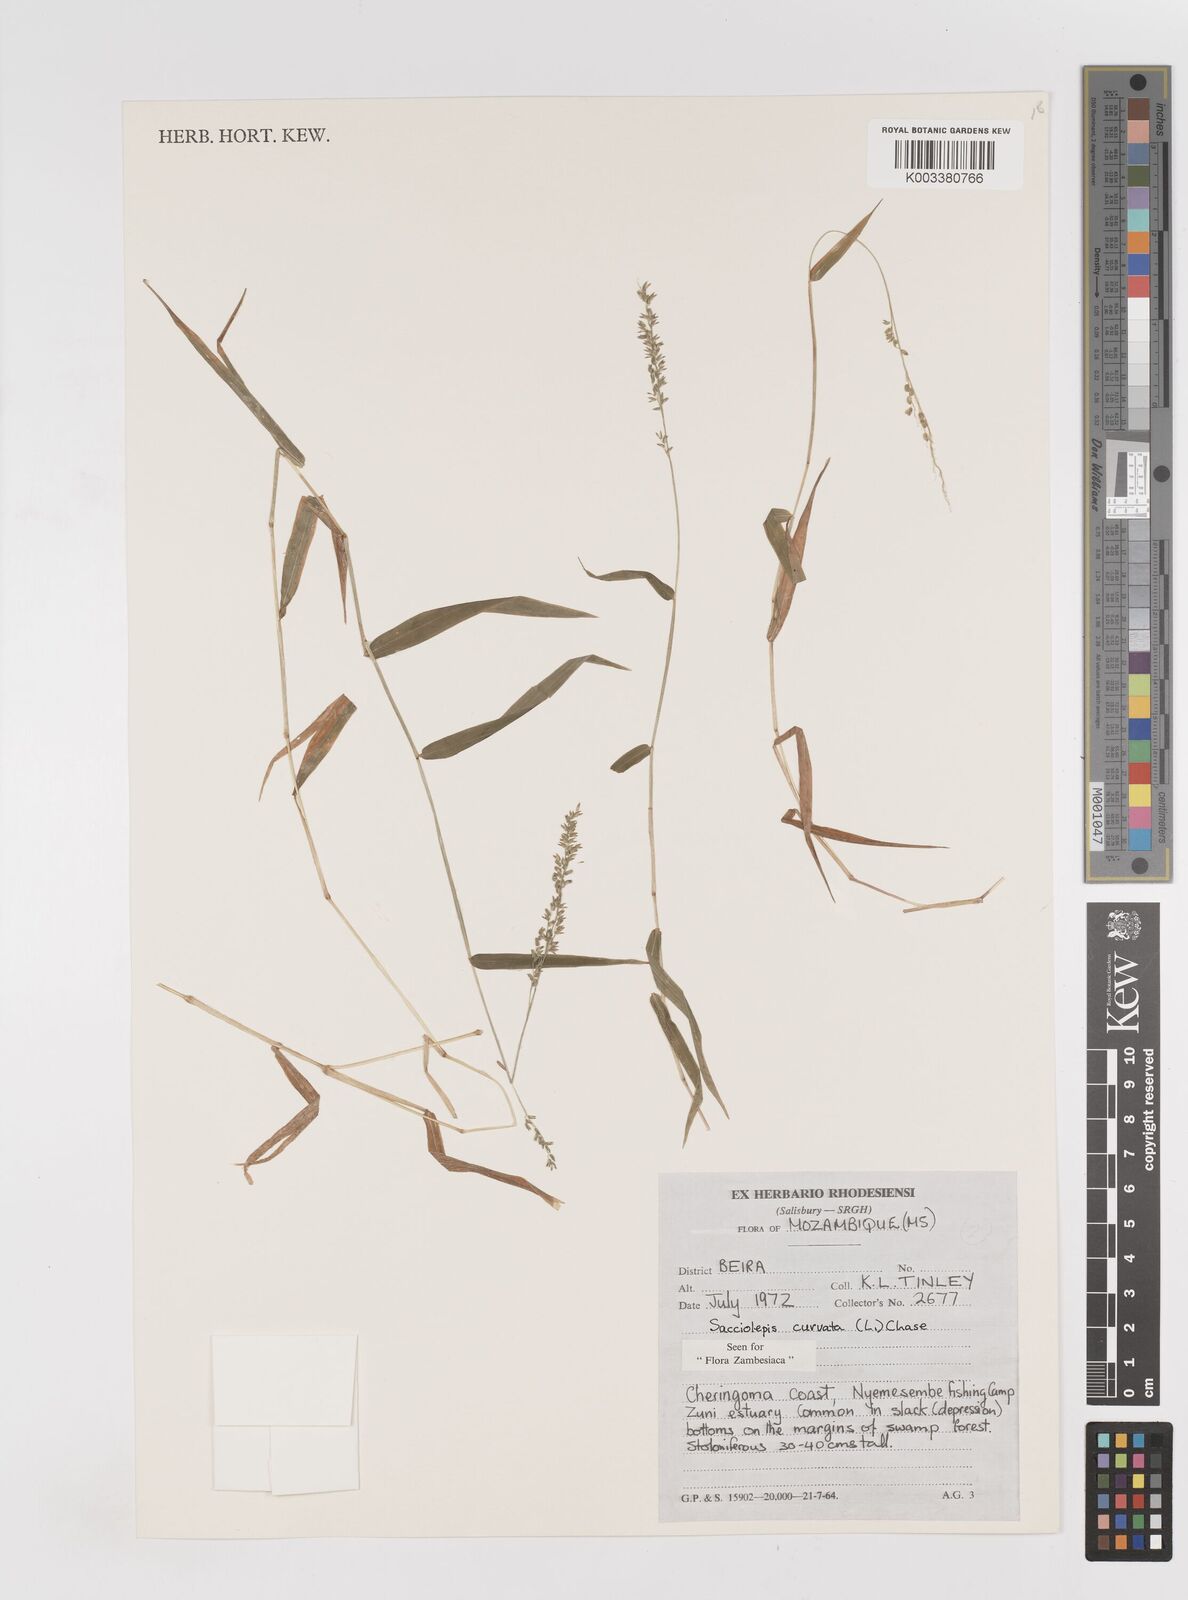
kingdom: Plantae
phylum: Tracheophyta
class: Liliopsida
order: Poales
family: Poaceae
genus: Sacciolepis
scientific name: Sacciolepis curvata
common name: Forest hood grass
